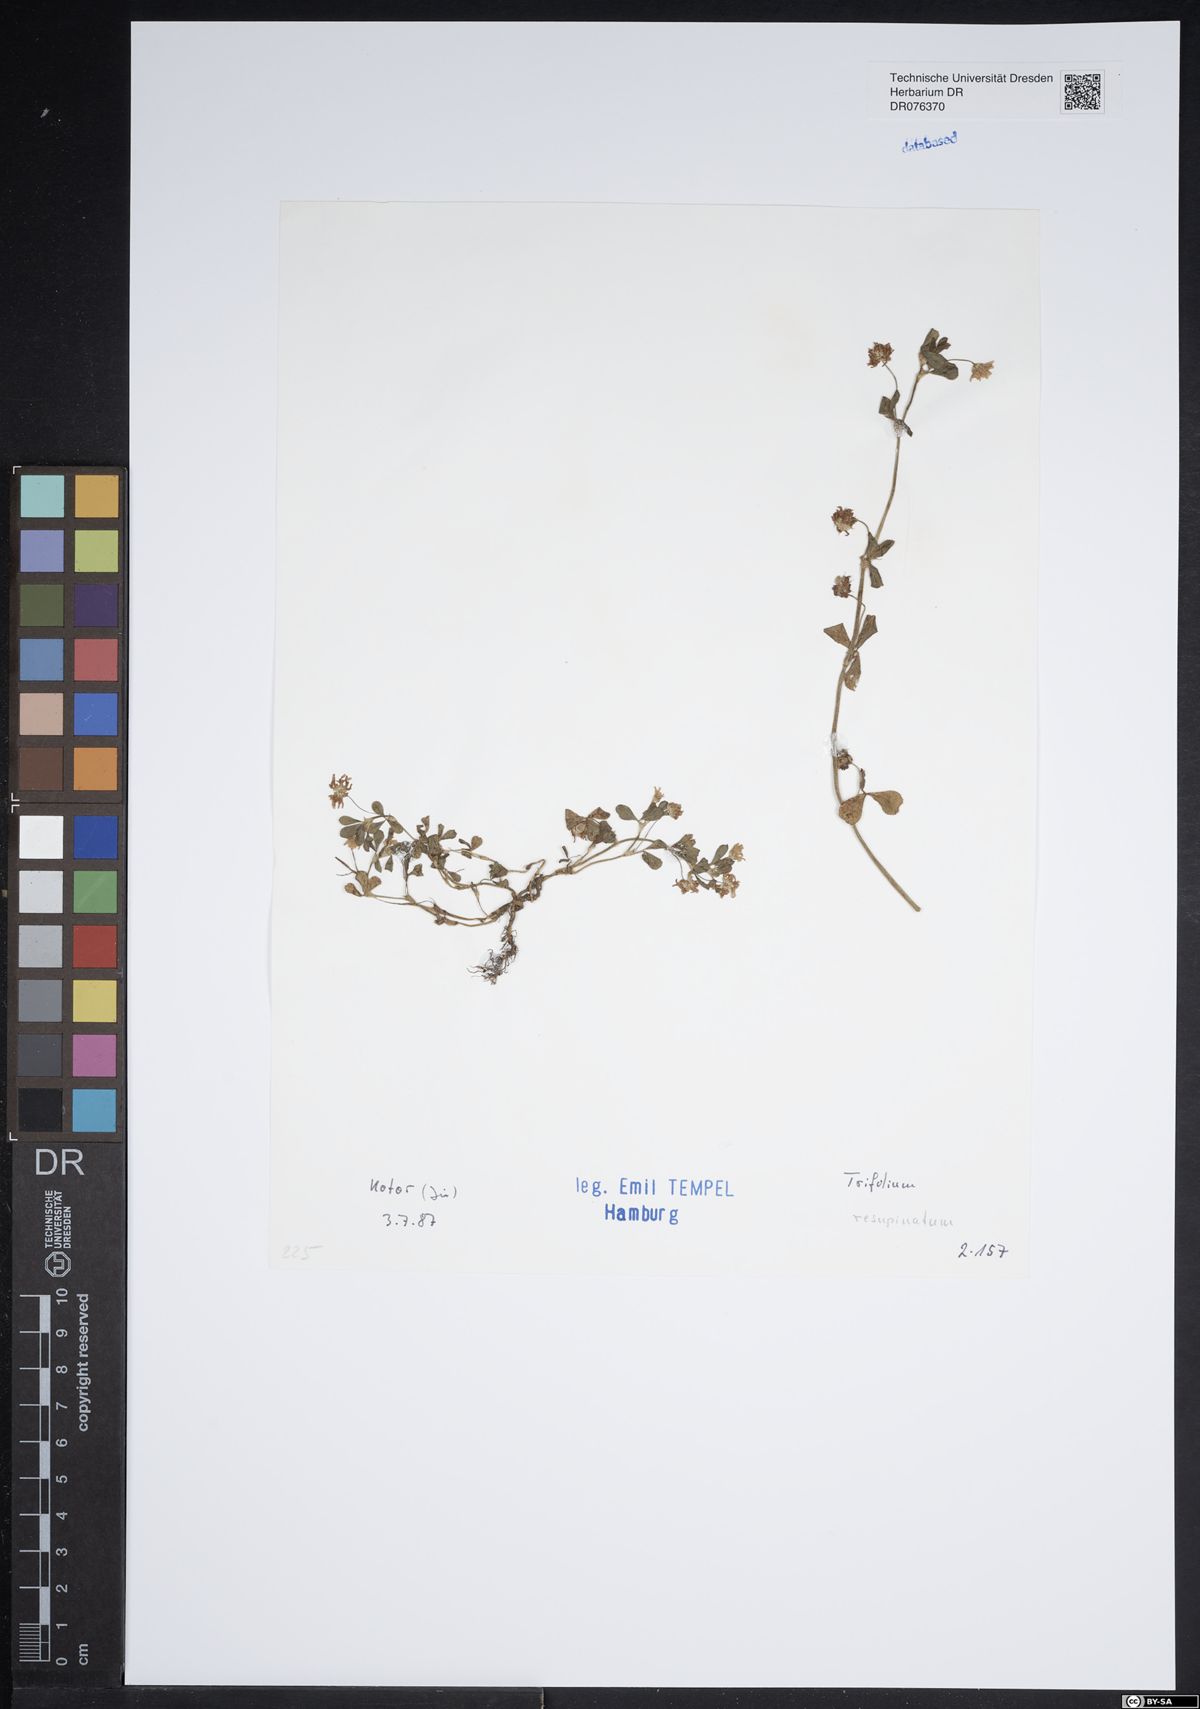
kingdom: Plantae
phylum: Tracheophyta
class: Magnoliopsida
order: Fabales
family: Fabaceae
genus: Trifolium
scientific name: Trifolium resupinatum
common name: Reversed clover
